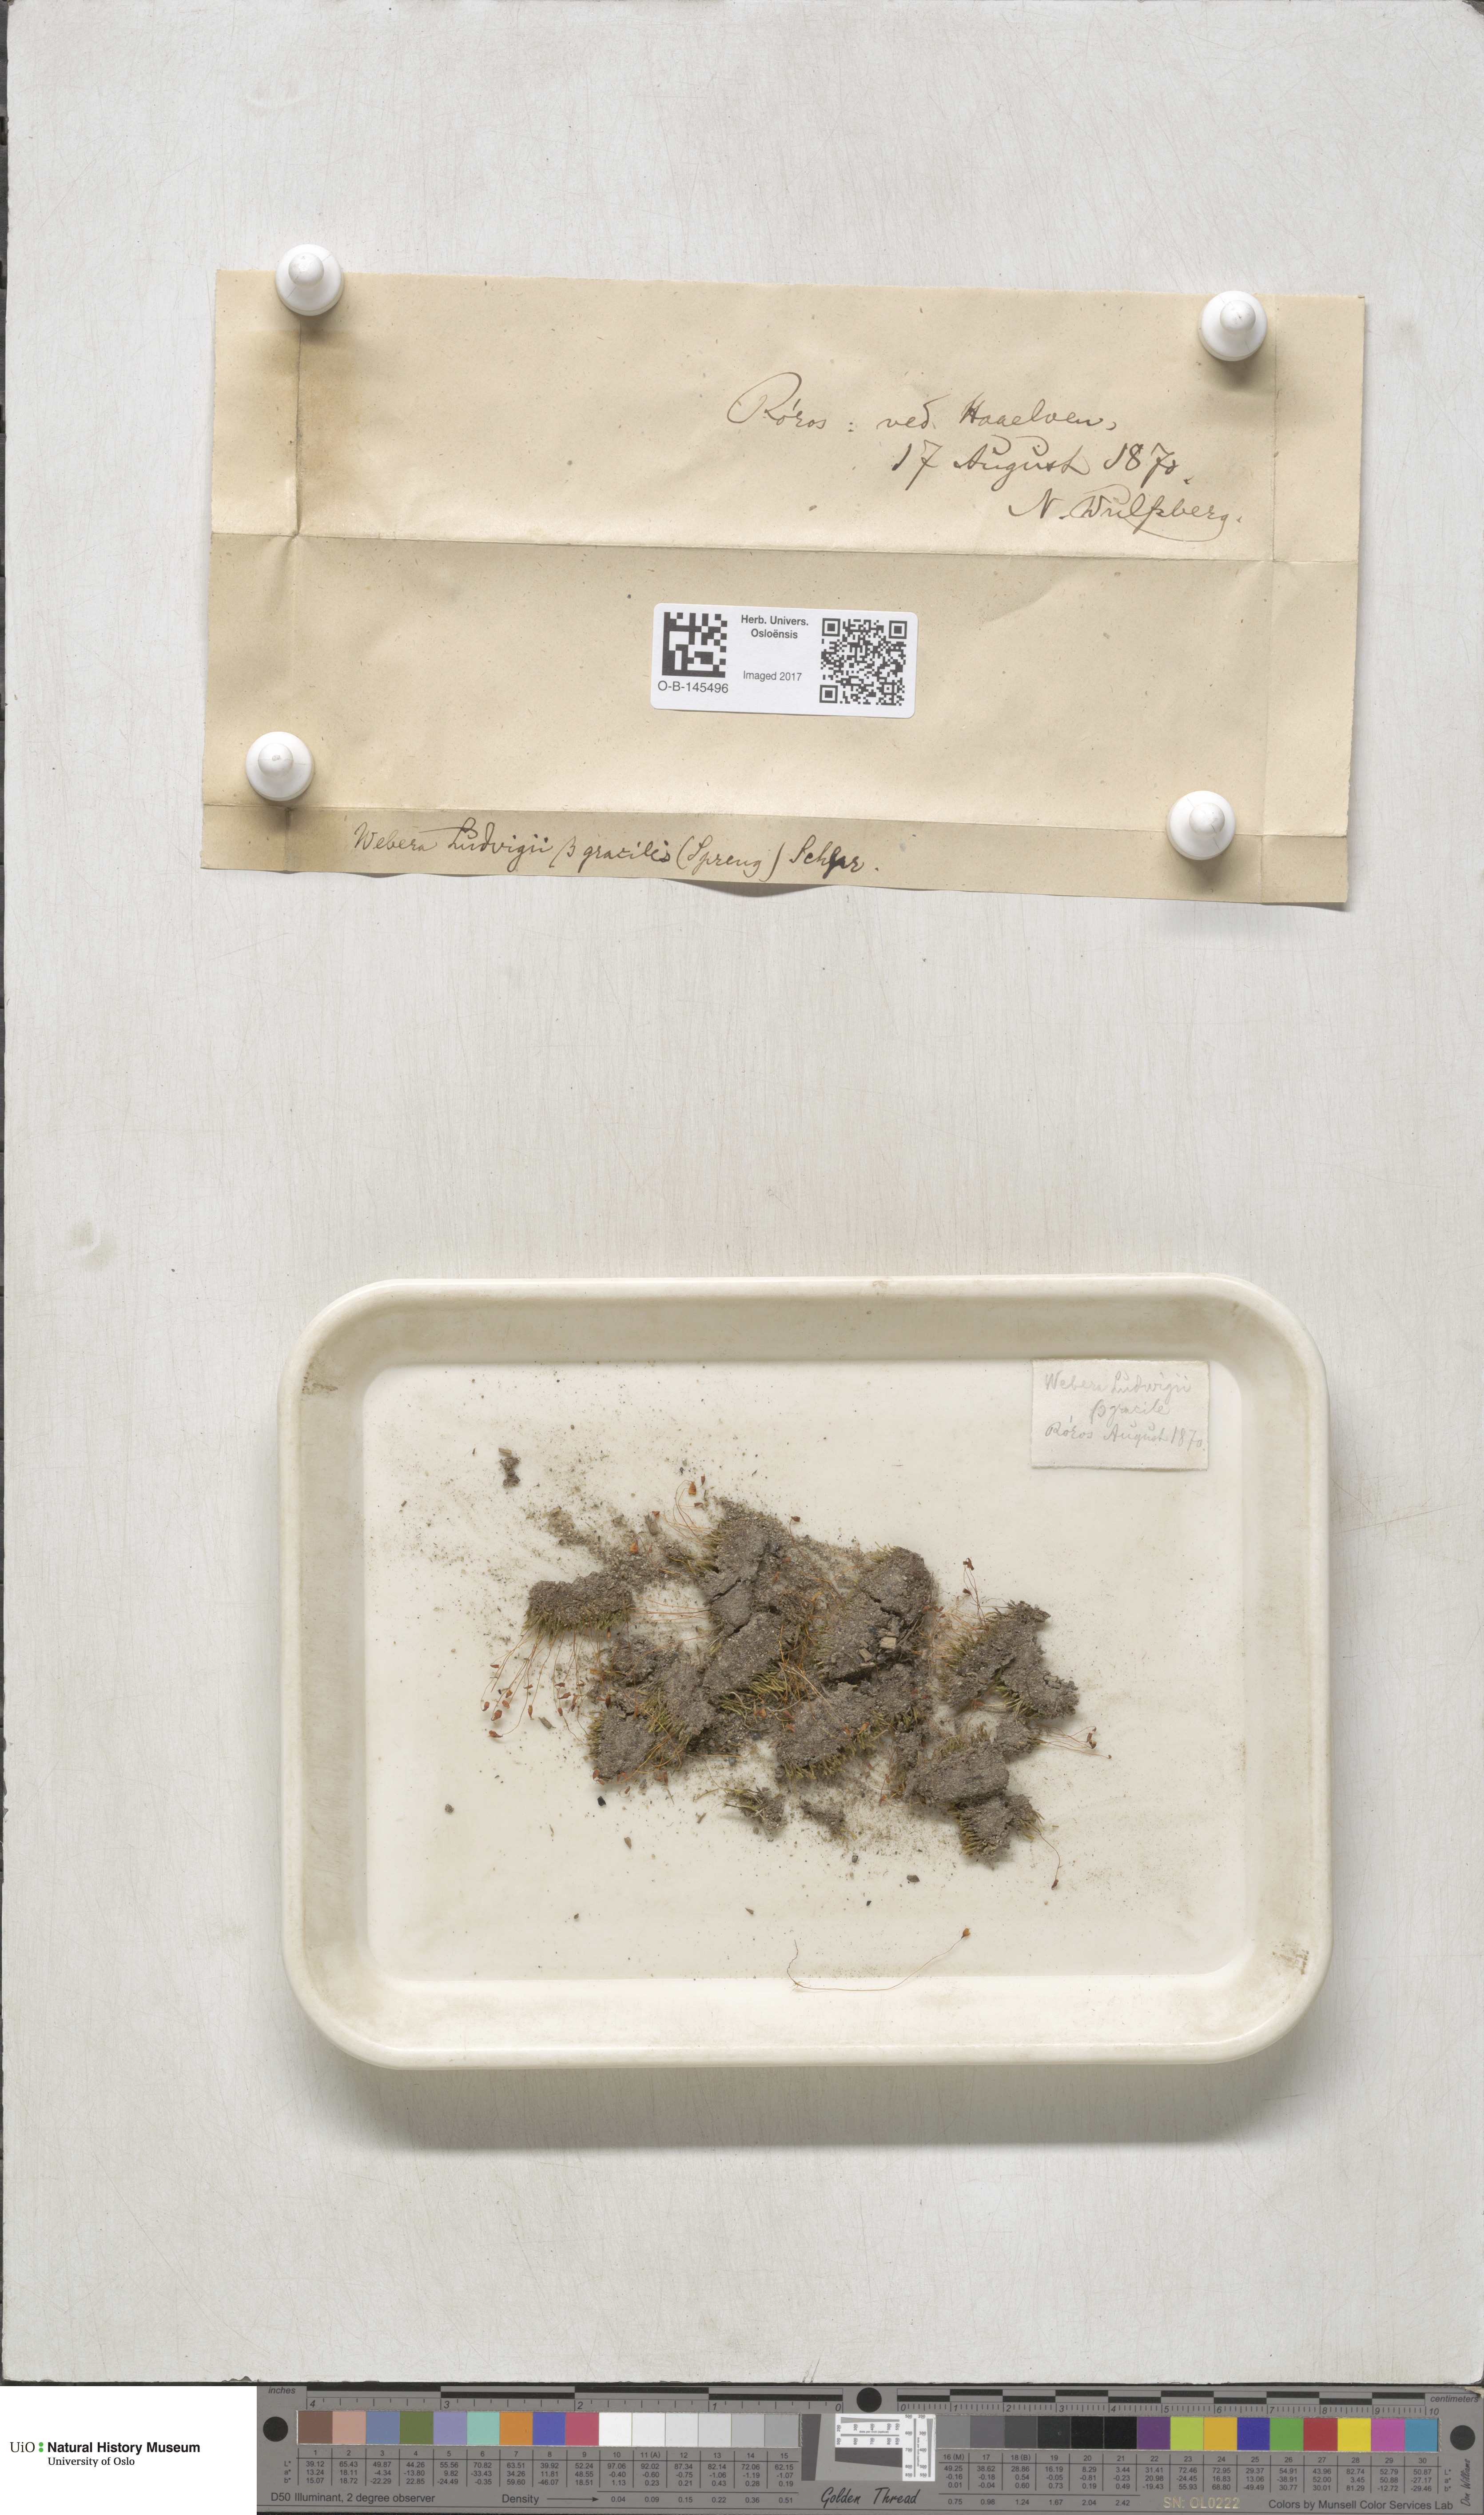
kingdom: Plantae
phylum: Bryophyta
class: Bryopsida
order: Bryales
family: Mniaceae
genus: Pohlia
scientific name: Pohlia ludwigii
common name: Ludwig's thread-moss
